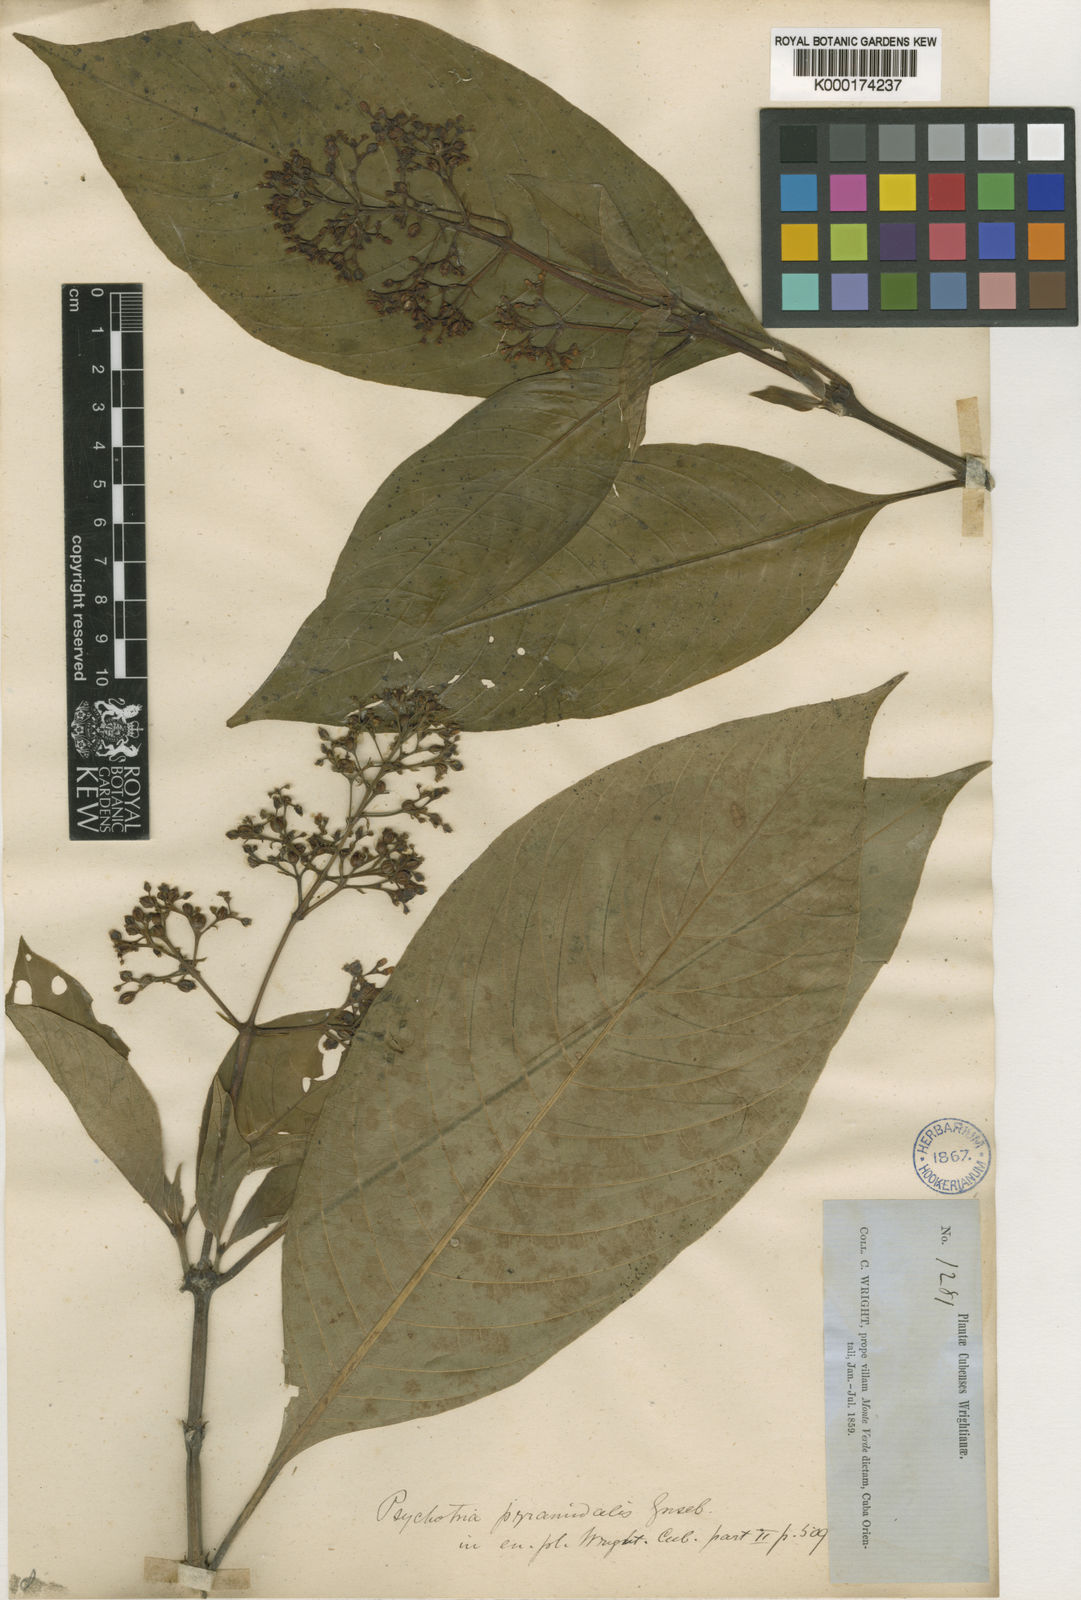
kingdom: Plantae
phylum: Tracheophyta
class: Magnoliopsida
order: Gentianales
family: Rubiaceae
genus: Palicourea
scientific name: Palicourea berteroana
